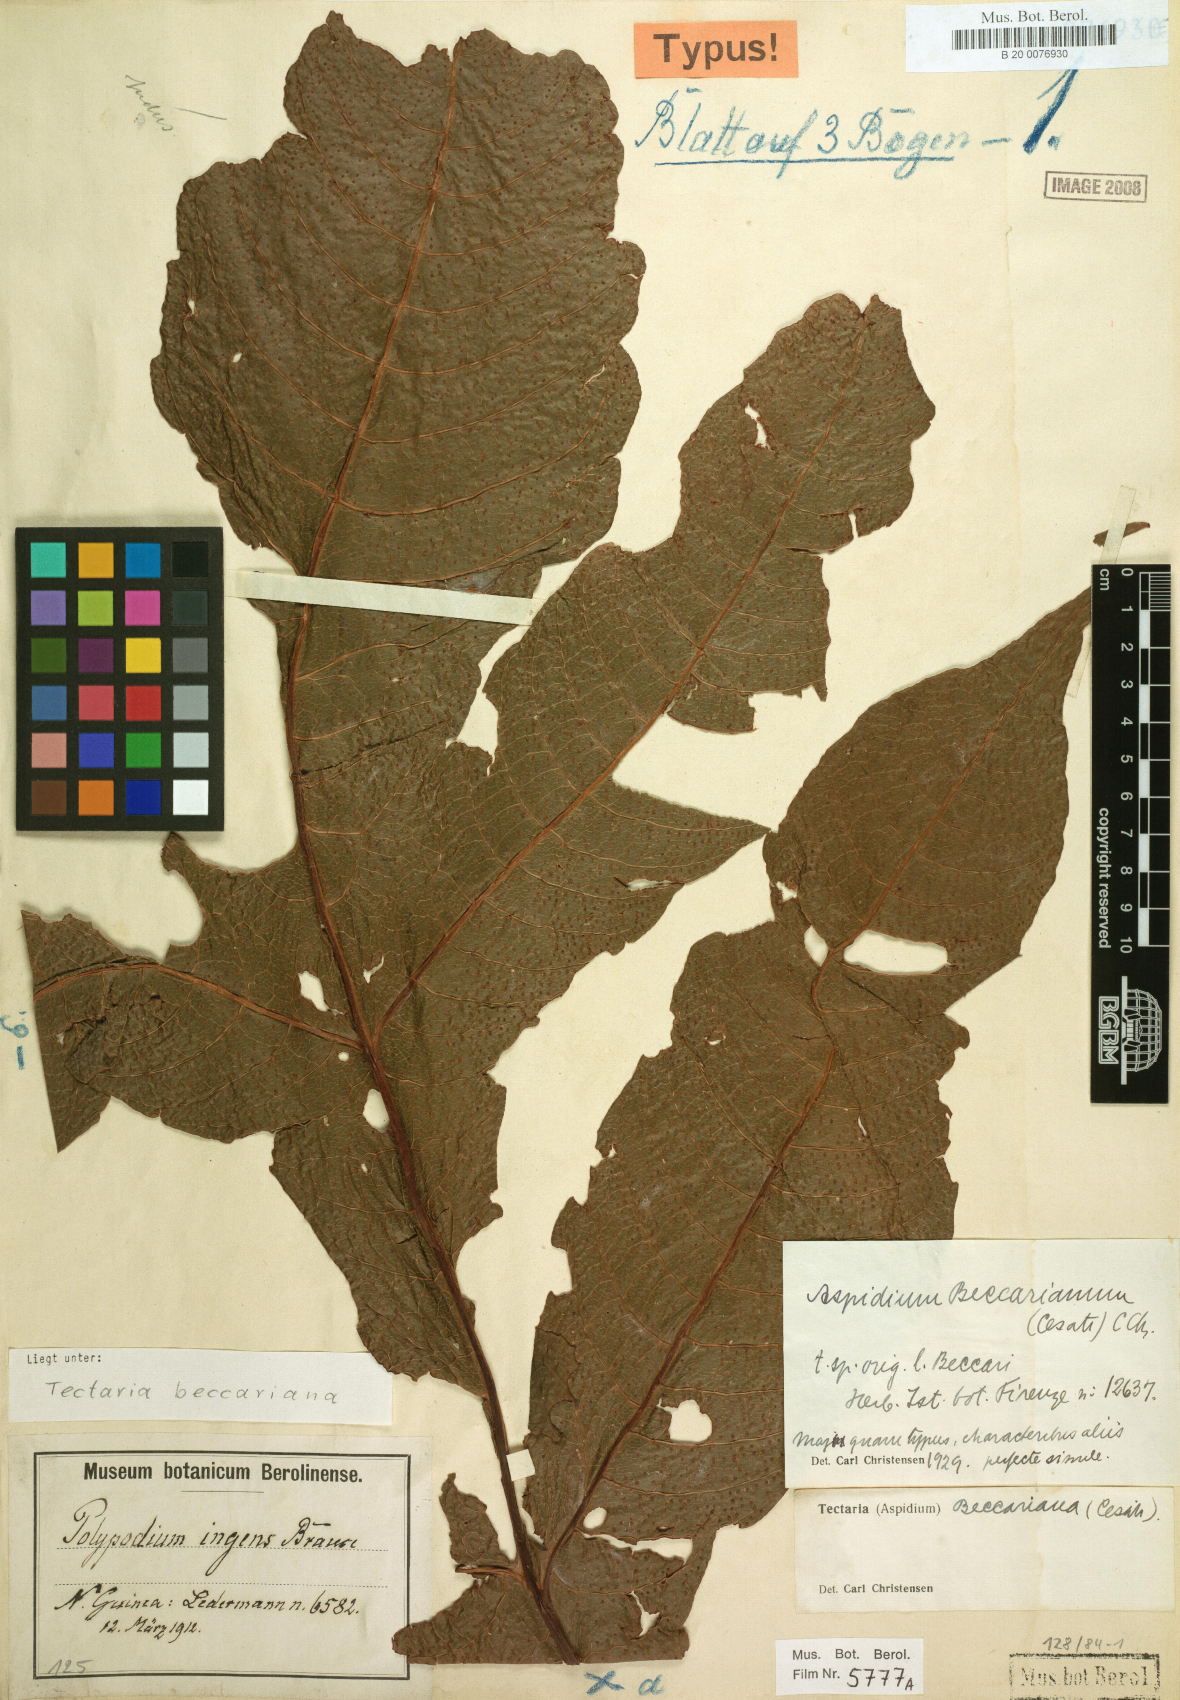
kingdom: Plantae
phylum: Tracheophyta
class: Polypodiopsida
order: Polypodiales
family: Tectariaceae
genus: Tectaria
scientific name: Tectaria beccariana
